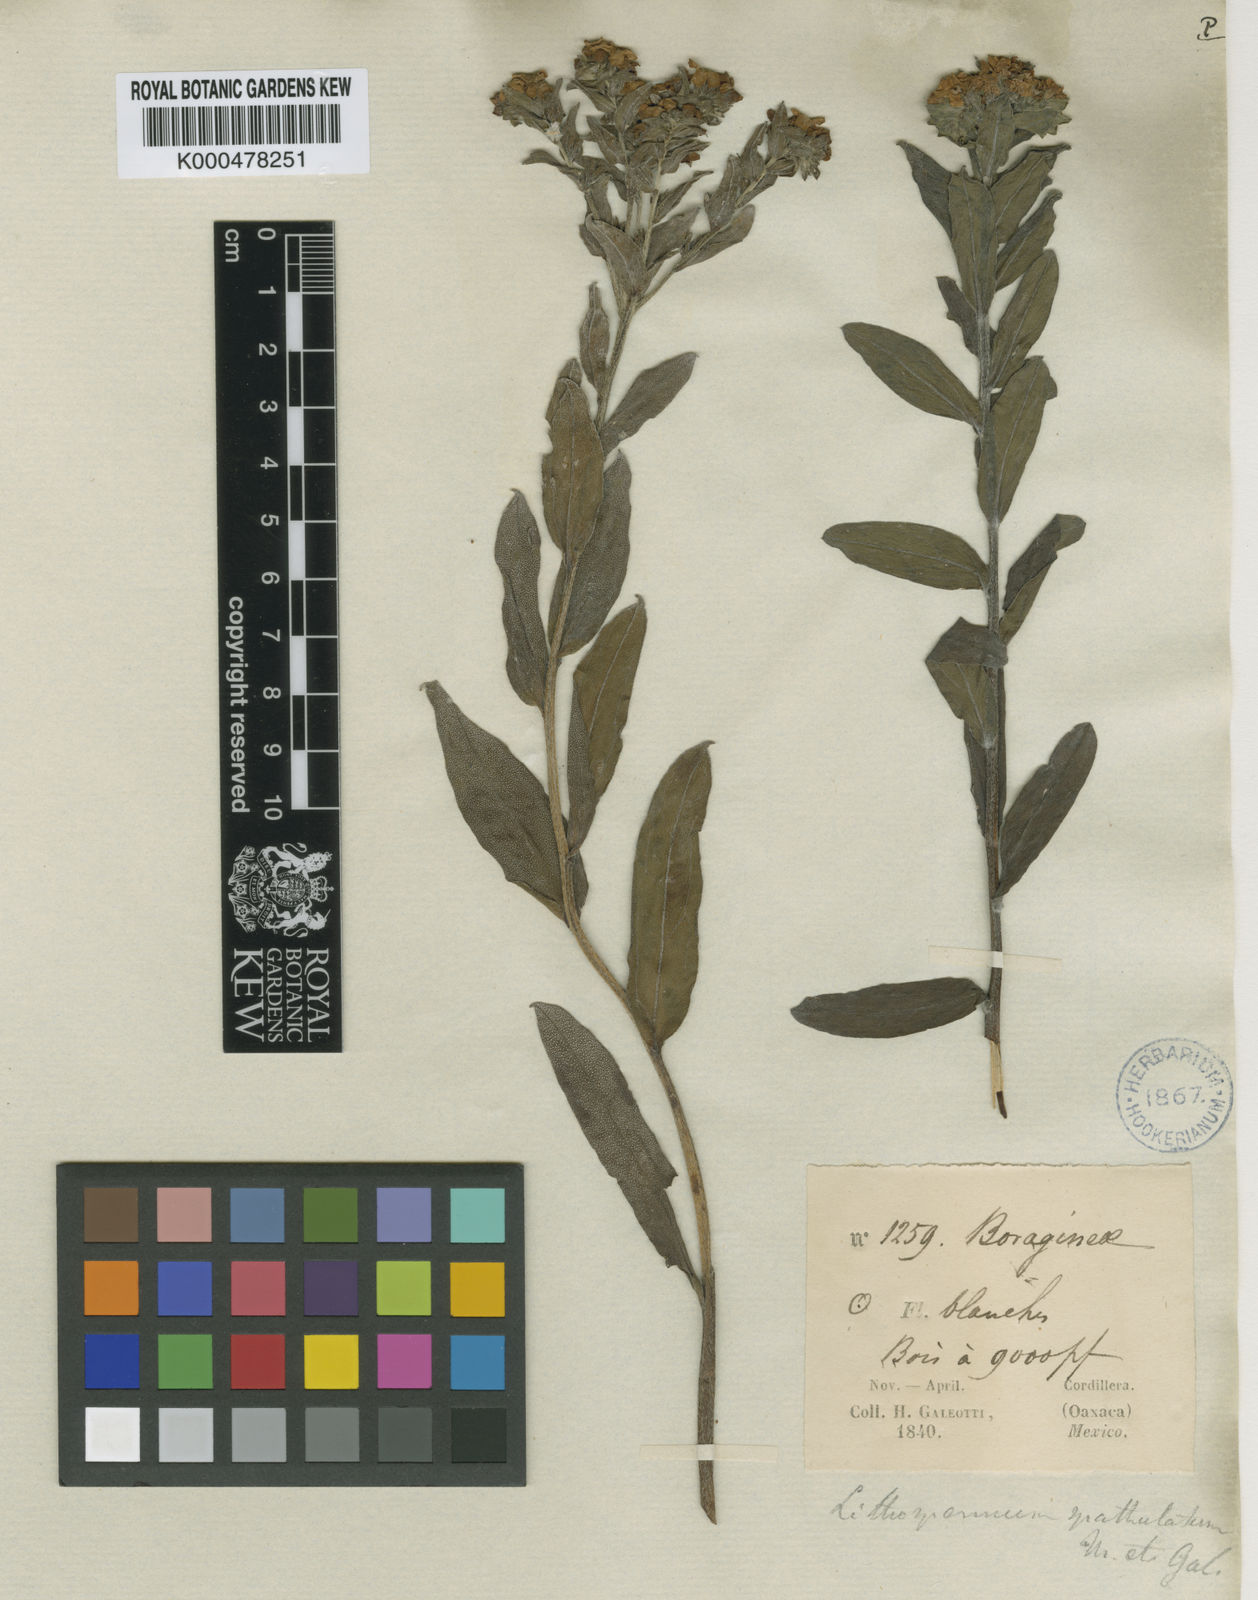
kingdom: Plantae
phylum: Tracheophyta
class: Magnoliopsida
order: Boraginales
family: Boraginaceae
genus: Lithospermum
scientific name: Lithospermum distichum
